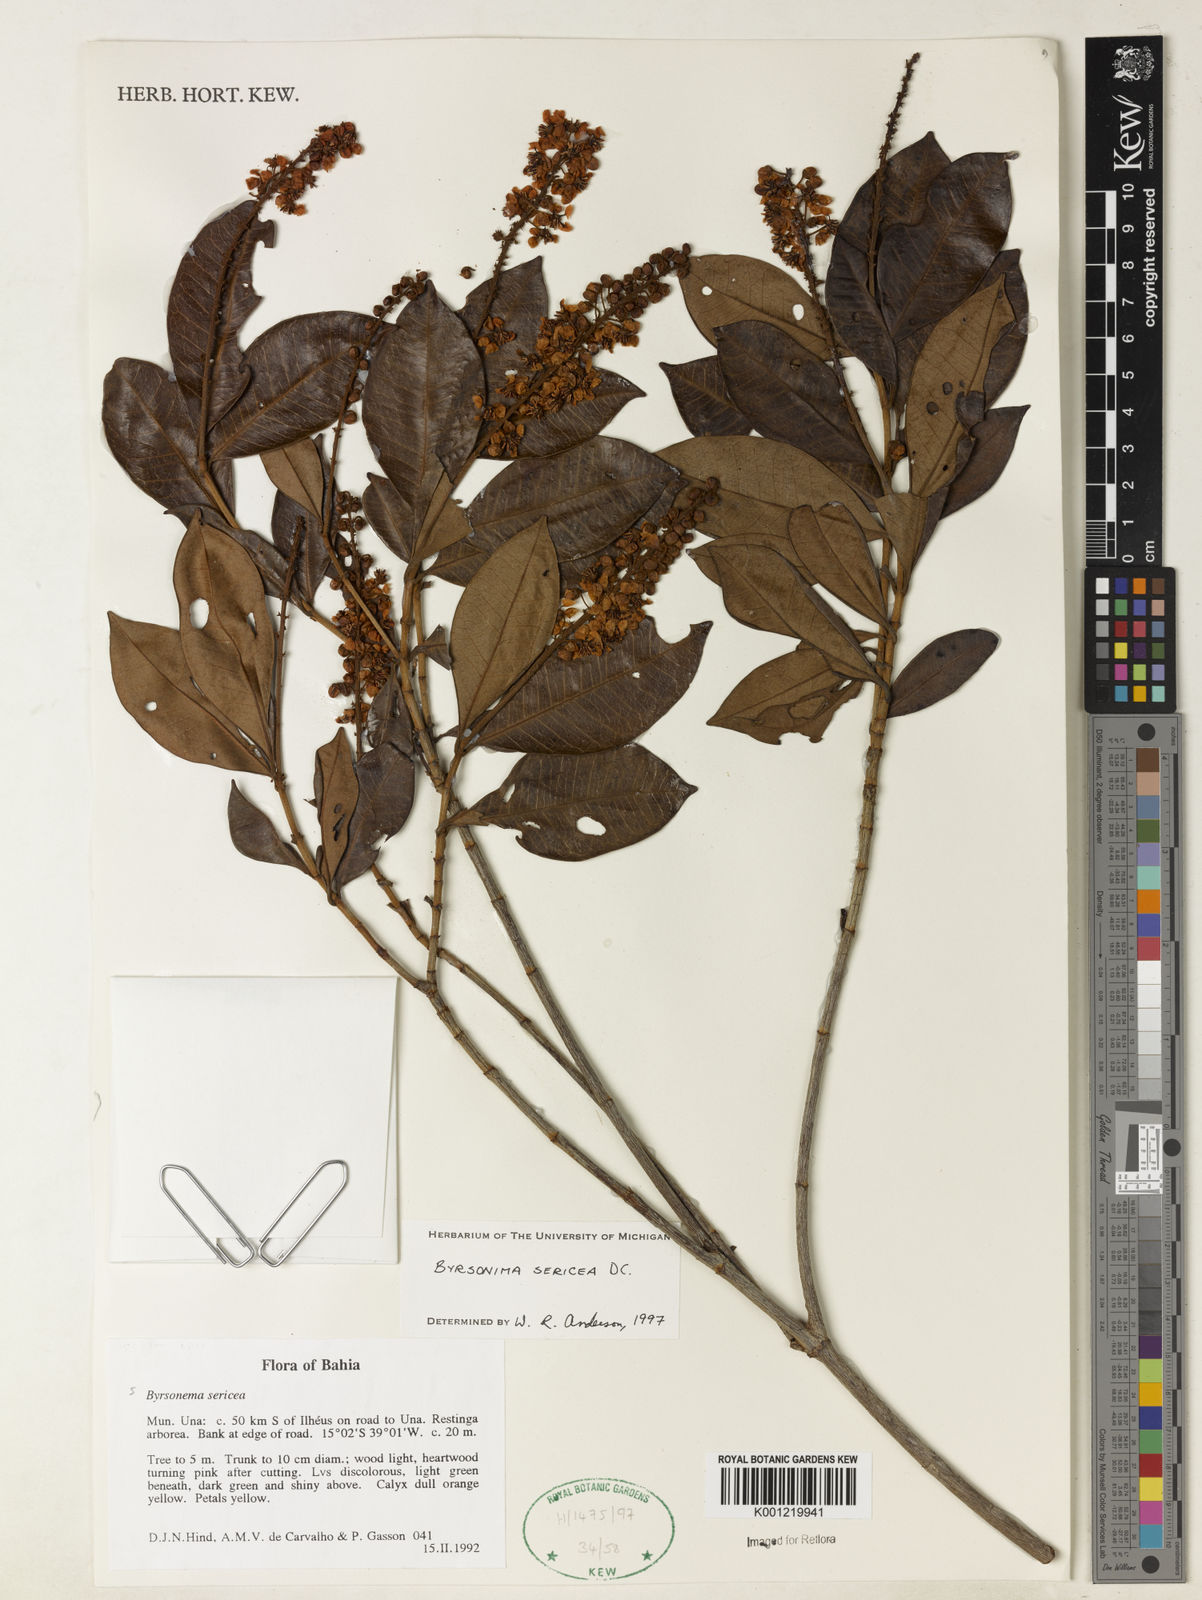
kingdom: Plantae
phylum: Tracheophyta
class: Magnoliopsida
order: Malpighiales
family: Malpighiaceae
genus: Byrsonima
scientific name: Byrsonima sericea
